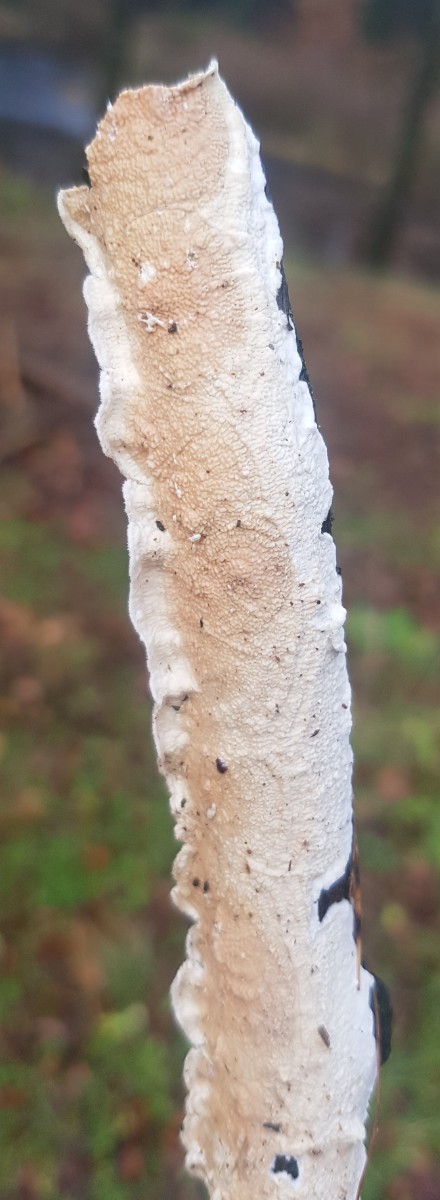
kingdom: Fungi
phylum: Basidiomycota
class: Agaricomycetes
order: Polyporales
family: Irpicaceae
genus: Byssomerulius
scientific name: Byssomerulius corium
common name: læder-åresvamp
